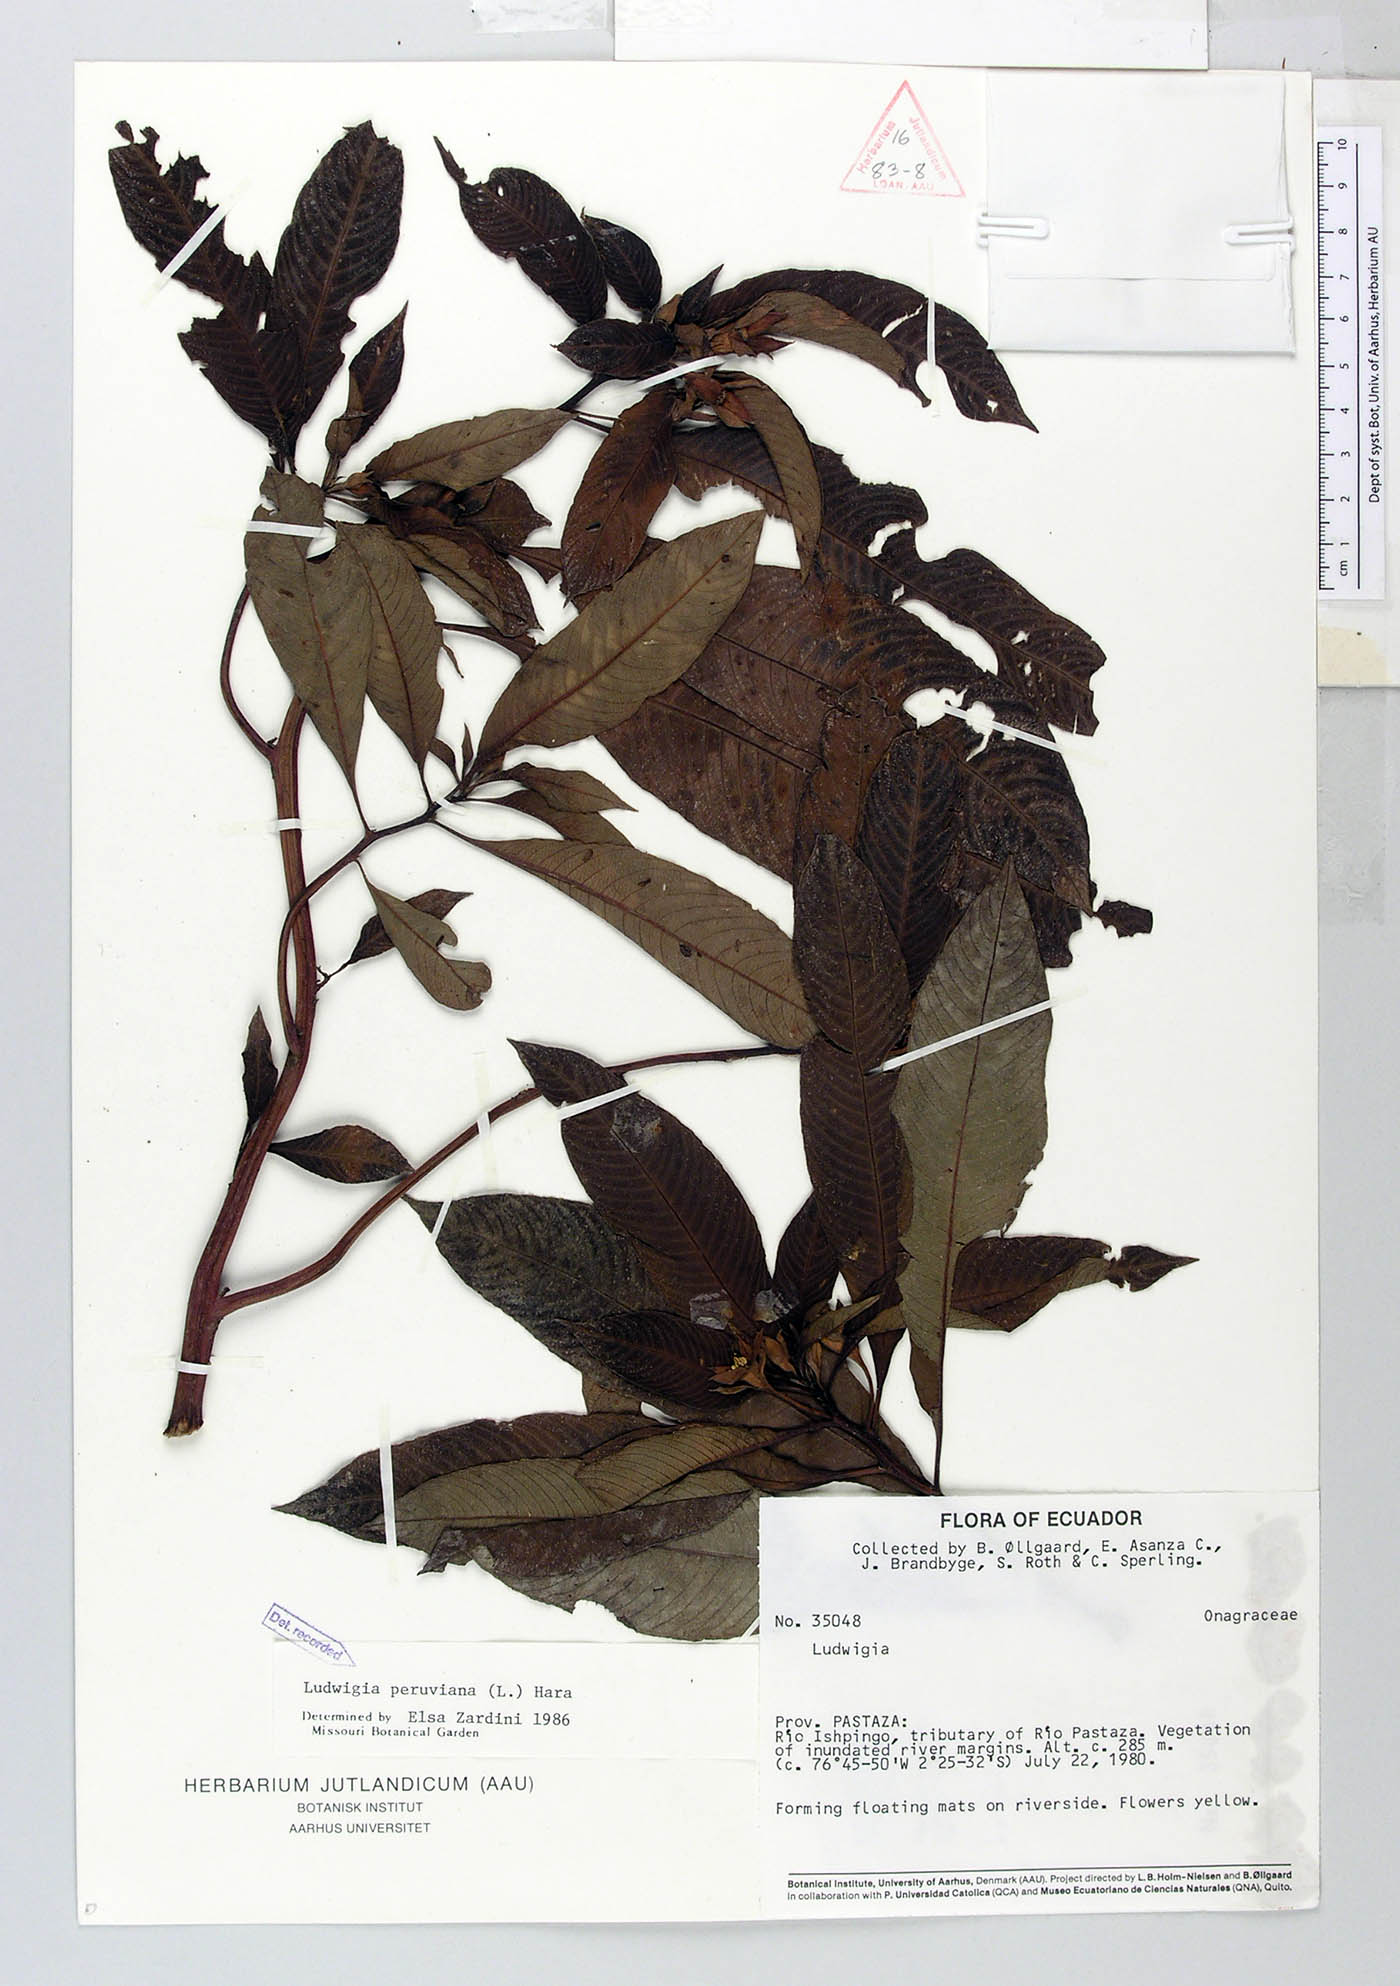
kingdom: Plantae
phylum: Tracheophyta
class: Magnoliopsida
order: Myrtales
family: Onagraceae
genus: Ludwigia
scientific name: Ludwigia peruviana
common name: Peruvian primrose-willow
